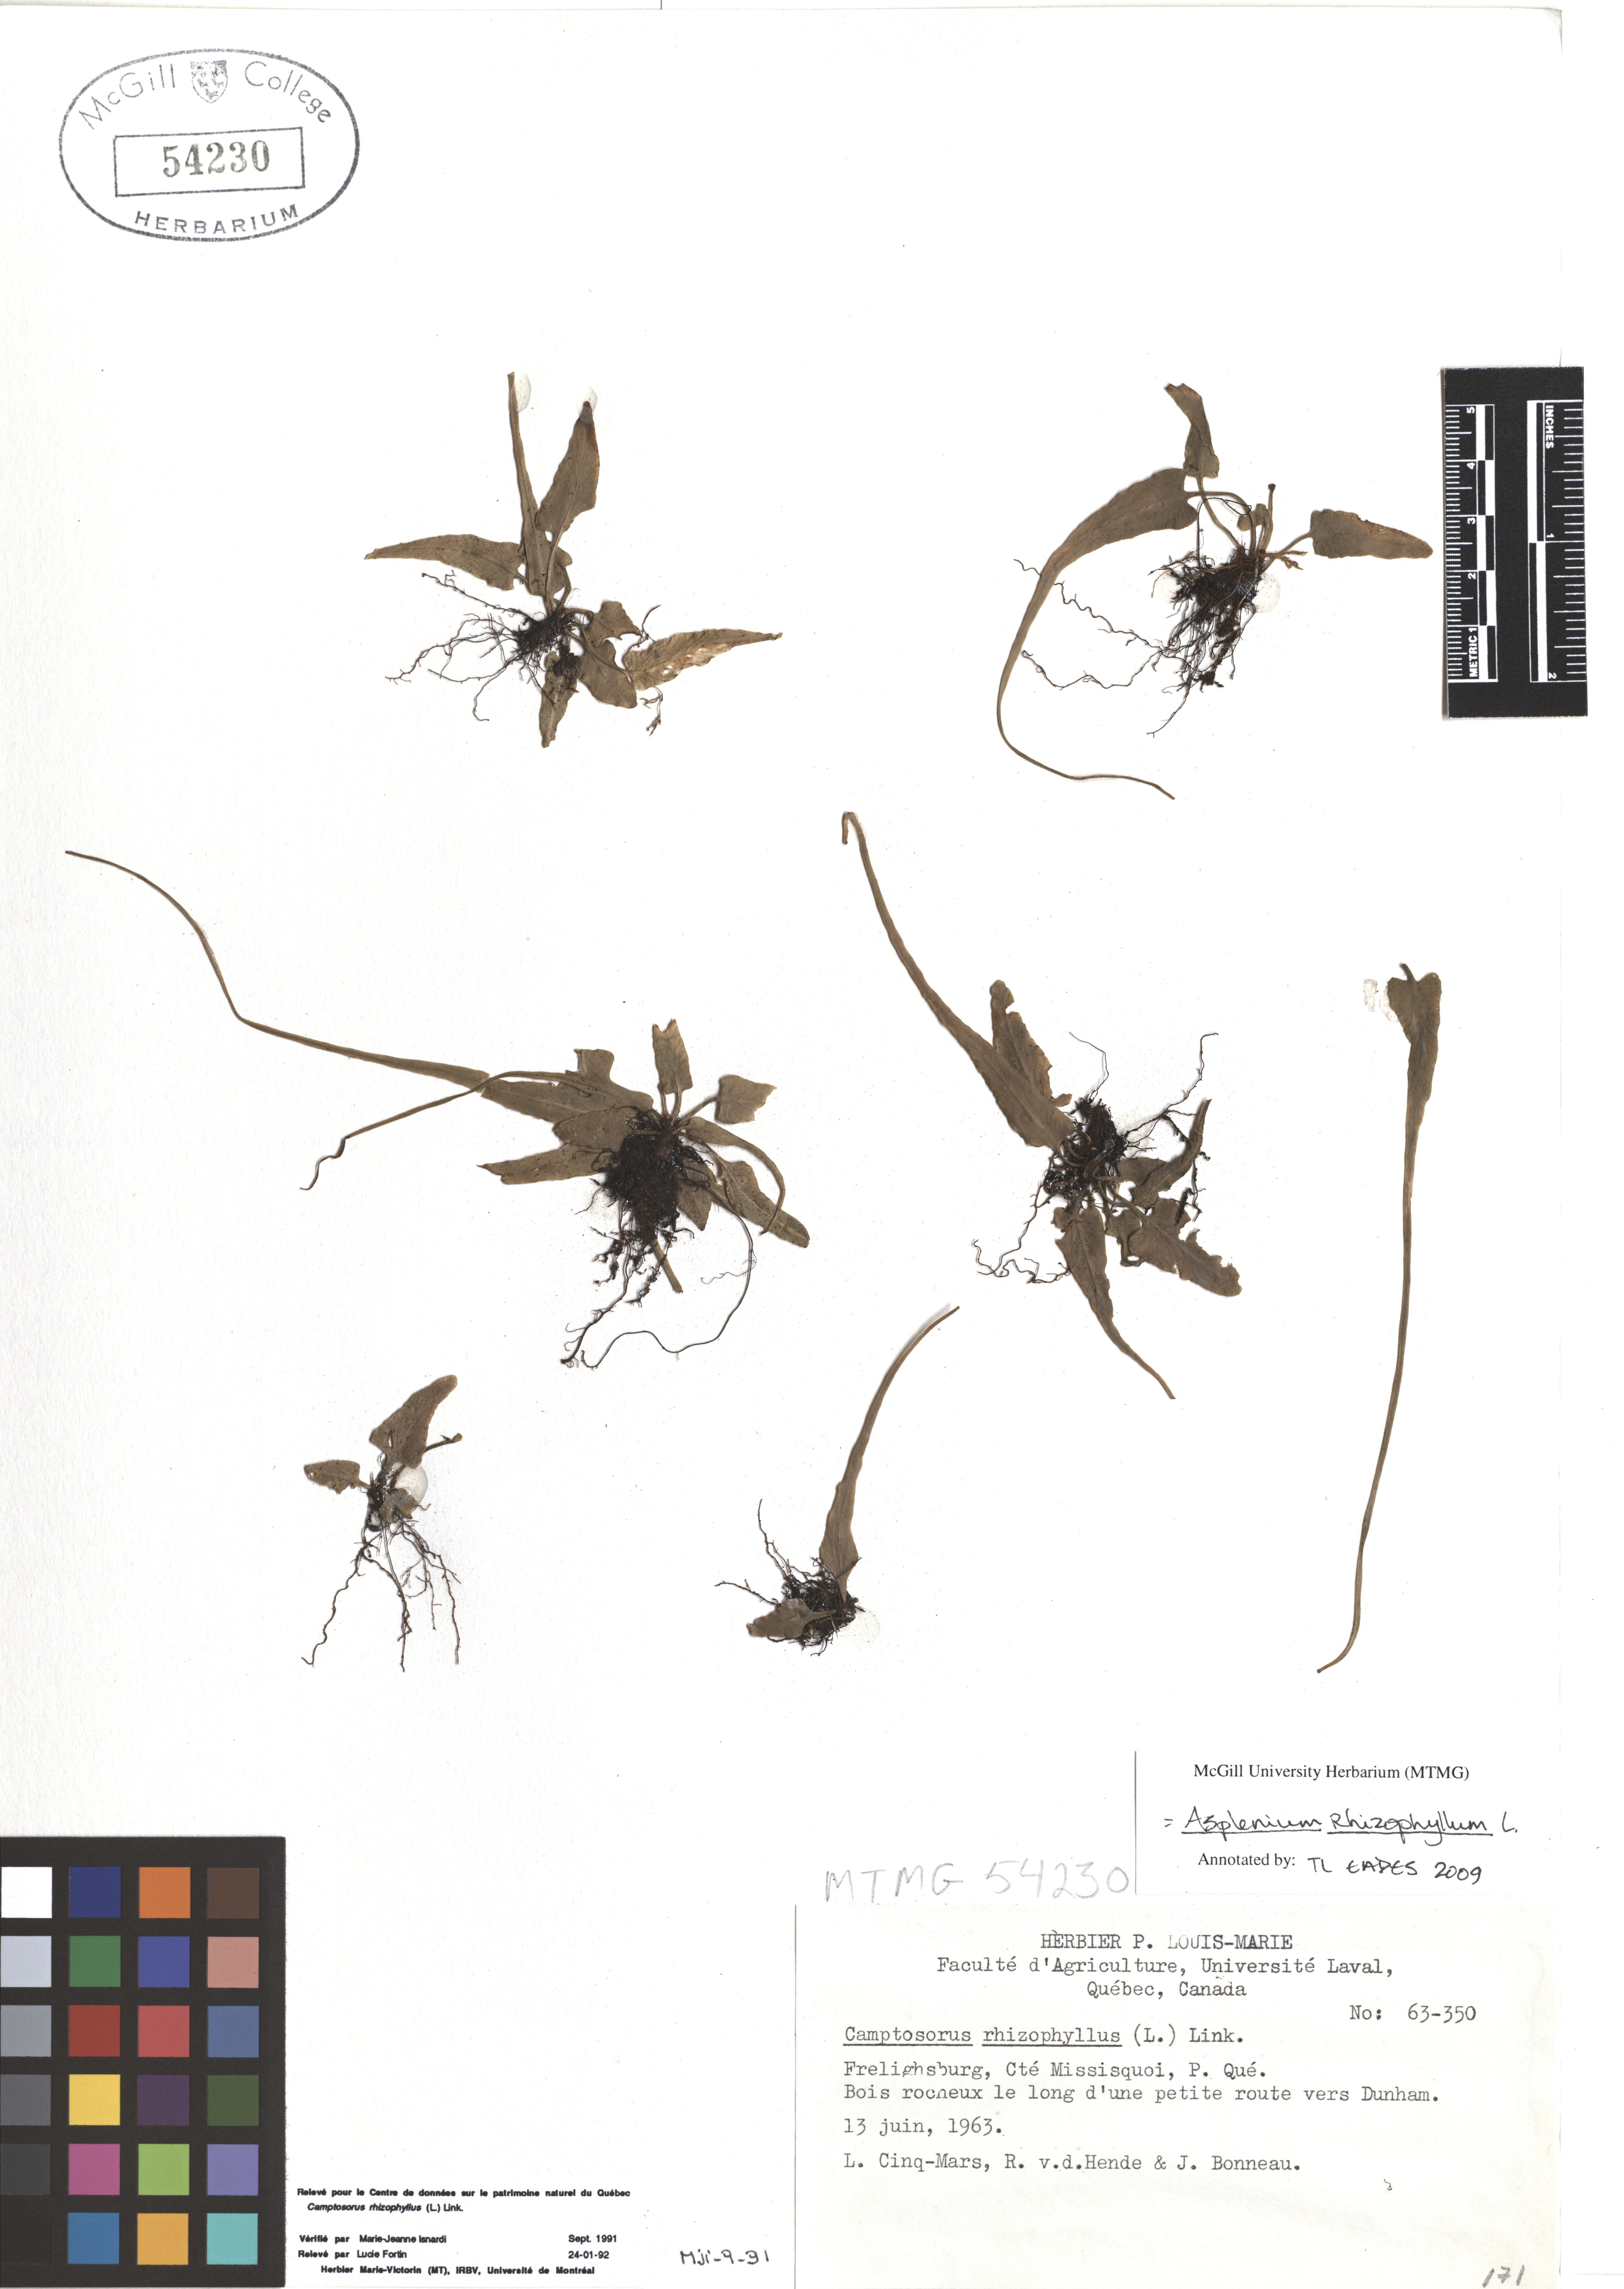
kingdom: Plantae
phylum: Tracheophyta
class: Polypodiopsida
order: Polypodiales
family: Aspleniaceae
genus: Asplenium
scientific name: Asplenium radicans
